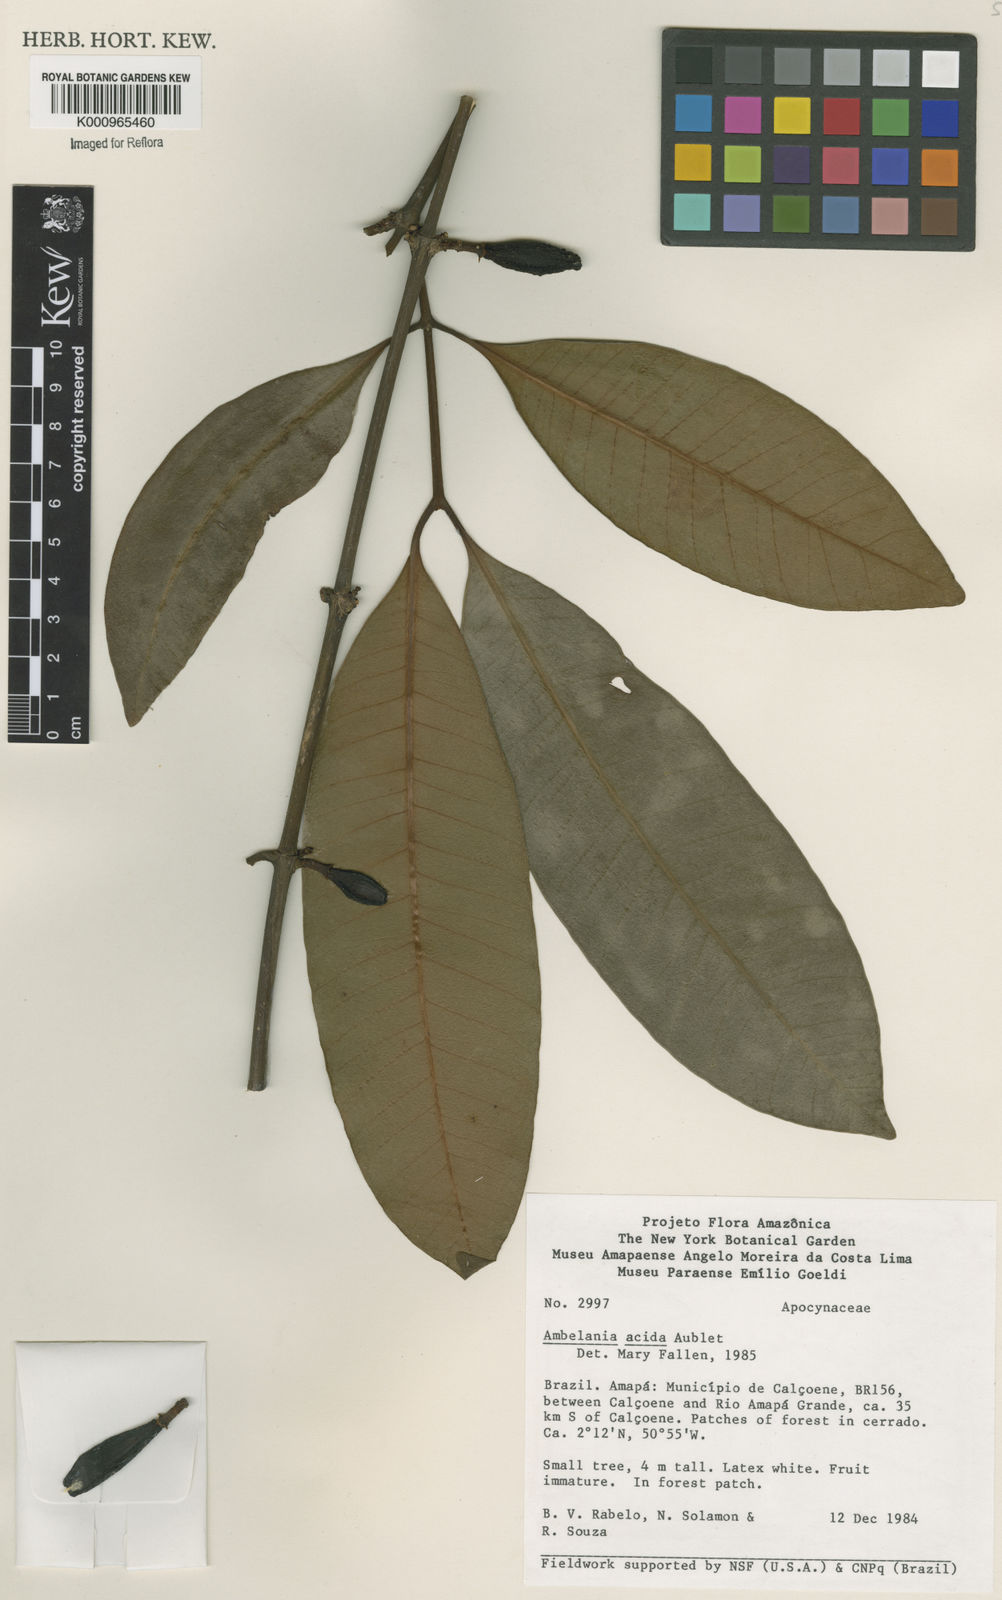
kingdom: Plantae
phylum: Tracheophyta
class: Magnoliopsida
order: Gentianales
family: Apocynaceae
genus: Ambelania
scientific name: Ambelania acida
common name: Bagasse
